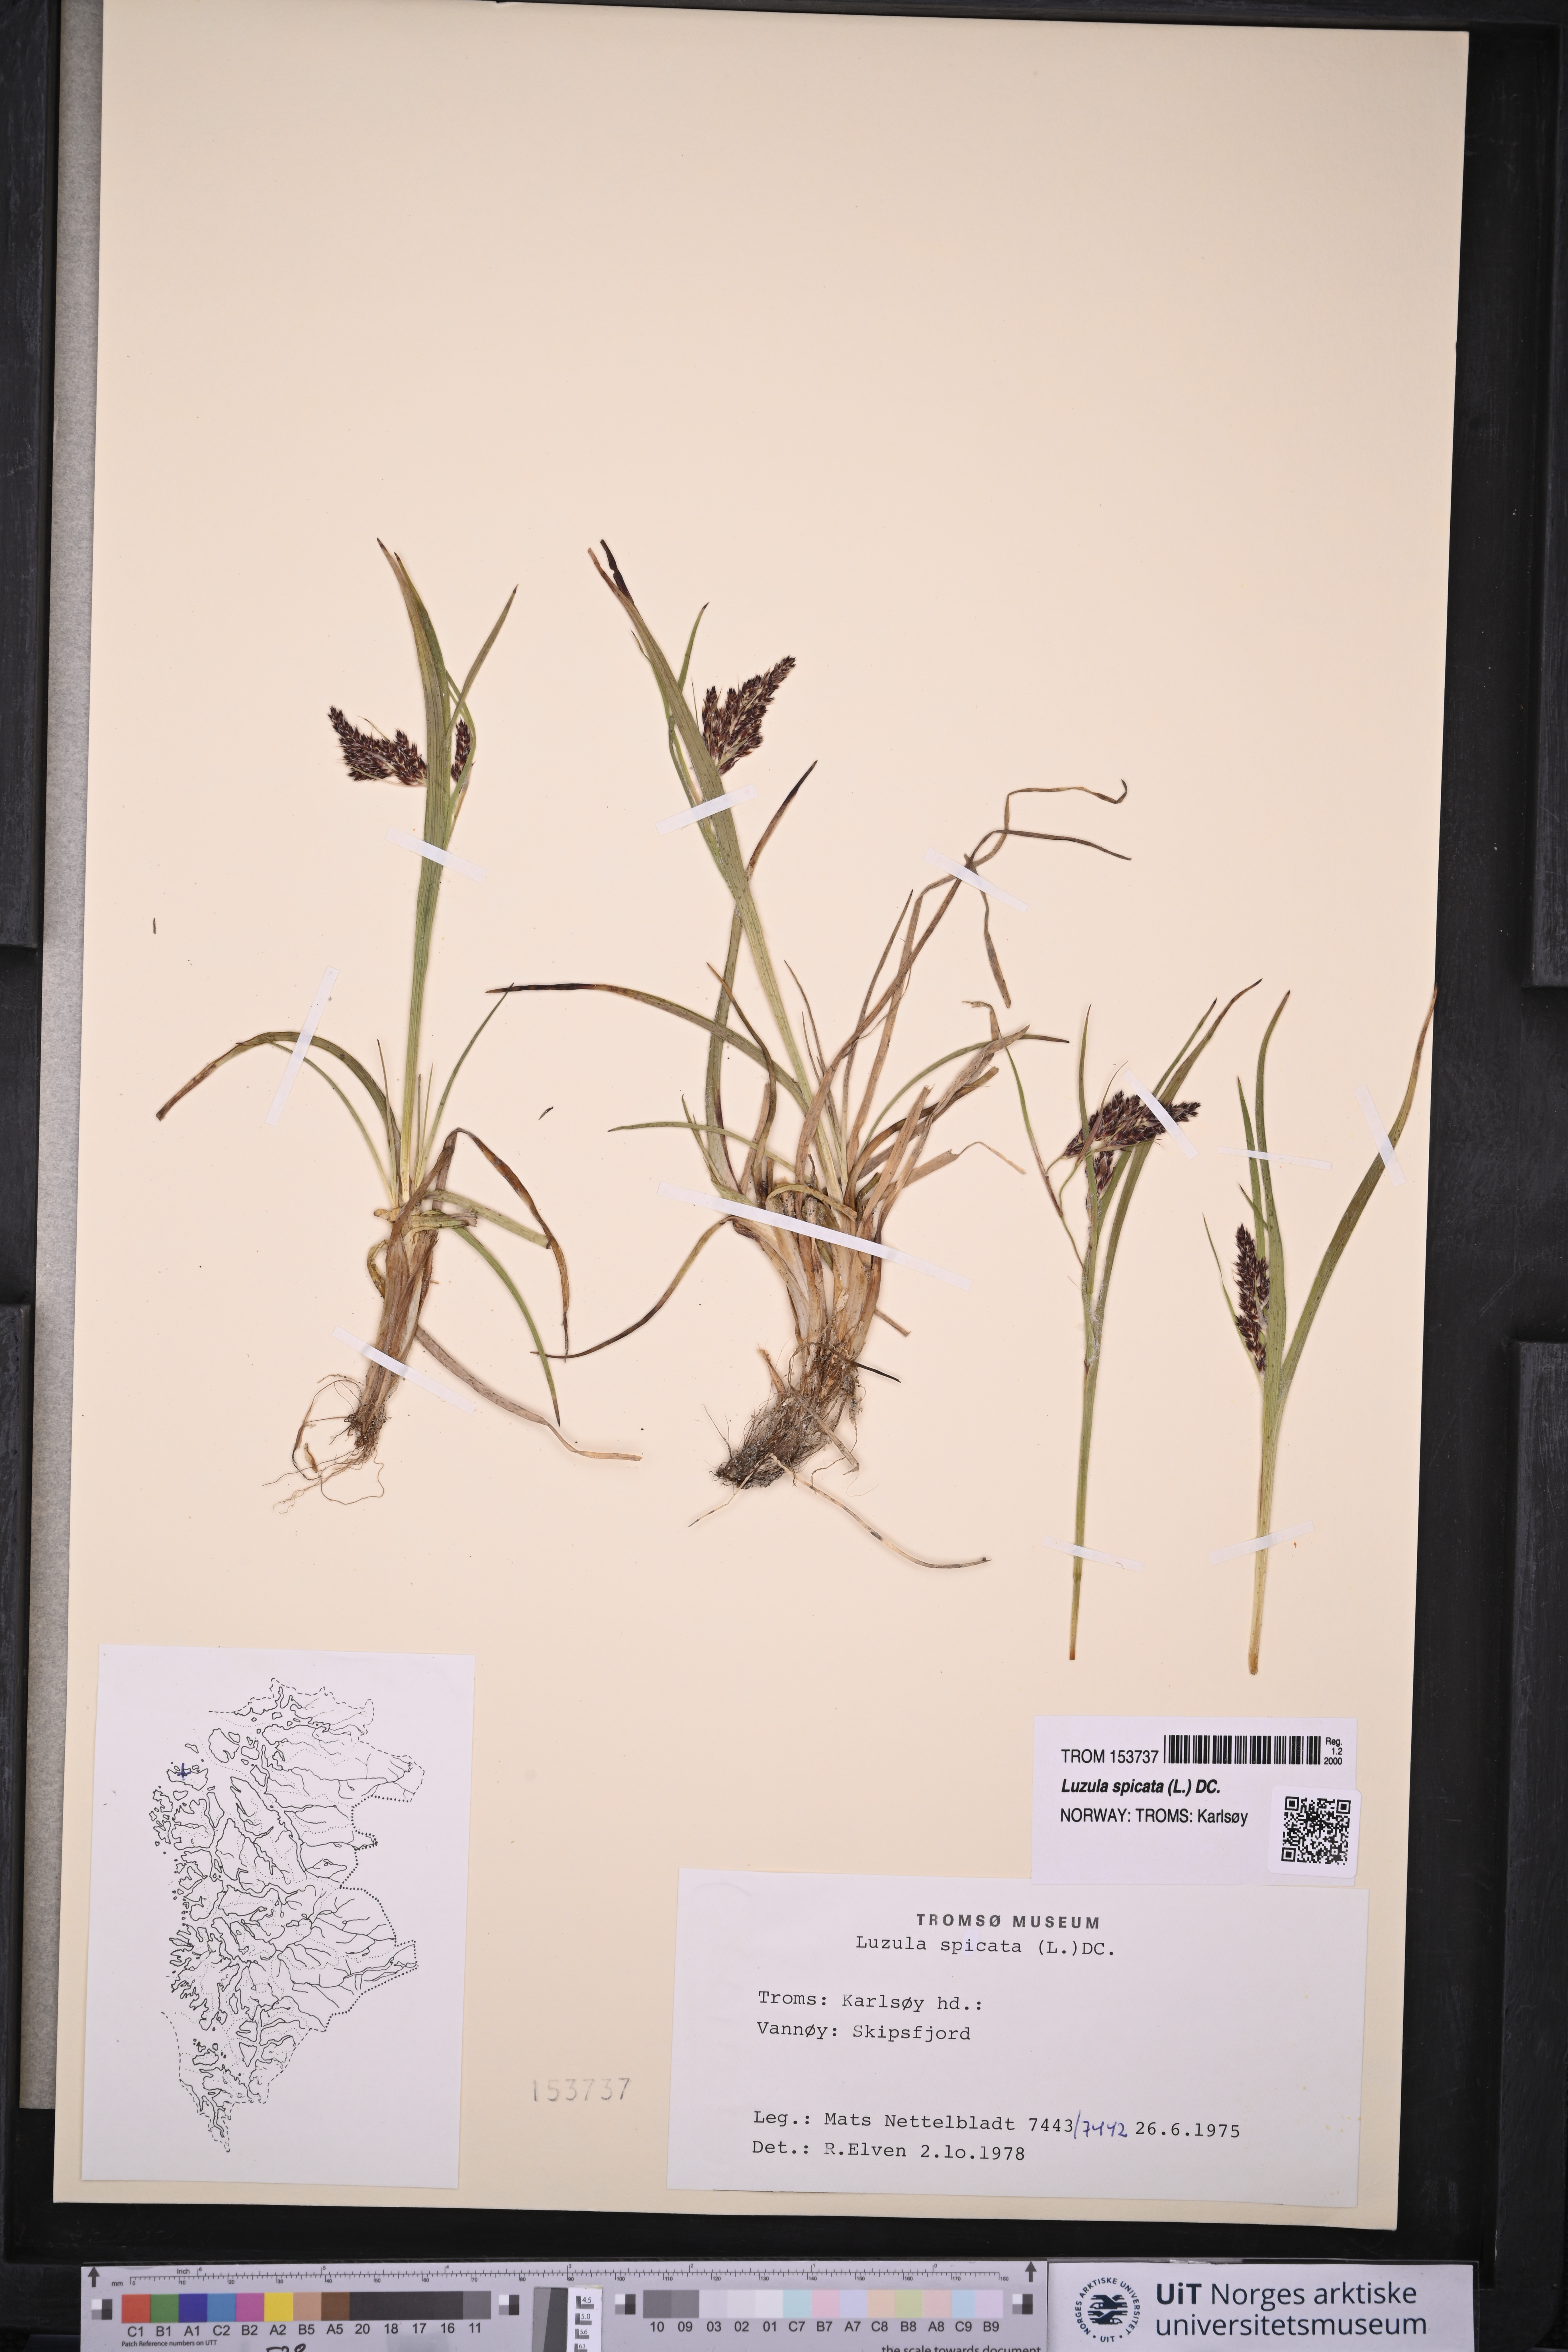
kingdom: Plantae
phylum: Tracheophyta
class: Liliopsida
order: Poales
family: Juncaceae
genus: Luzula
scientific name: Luzula spicata
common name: Spiked wood-rush
